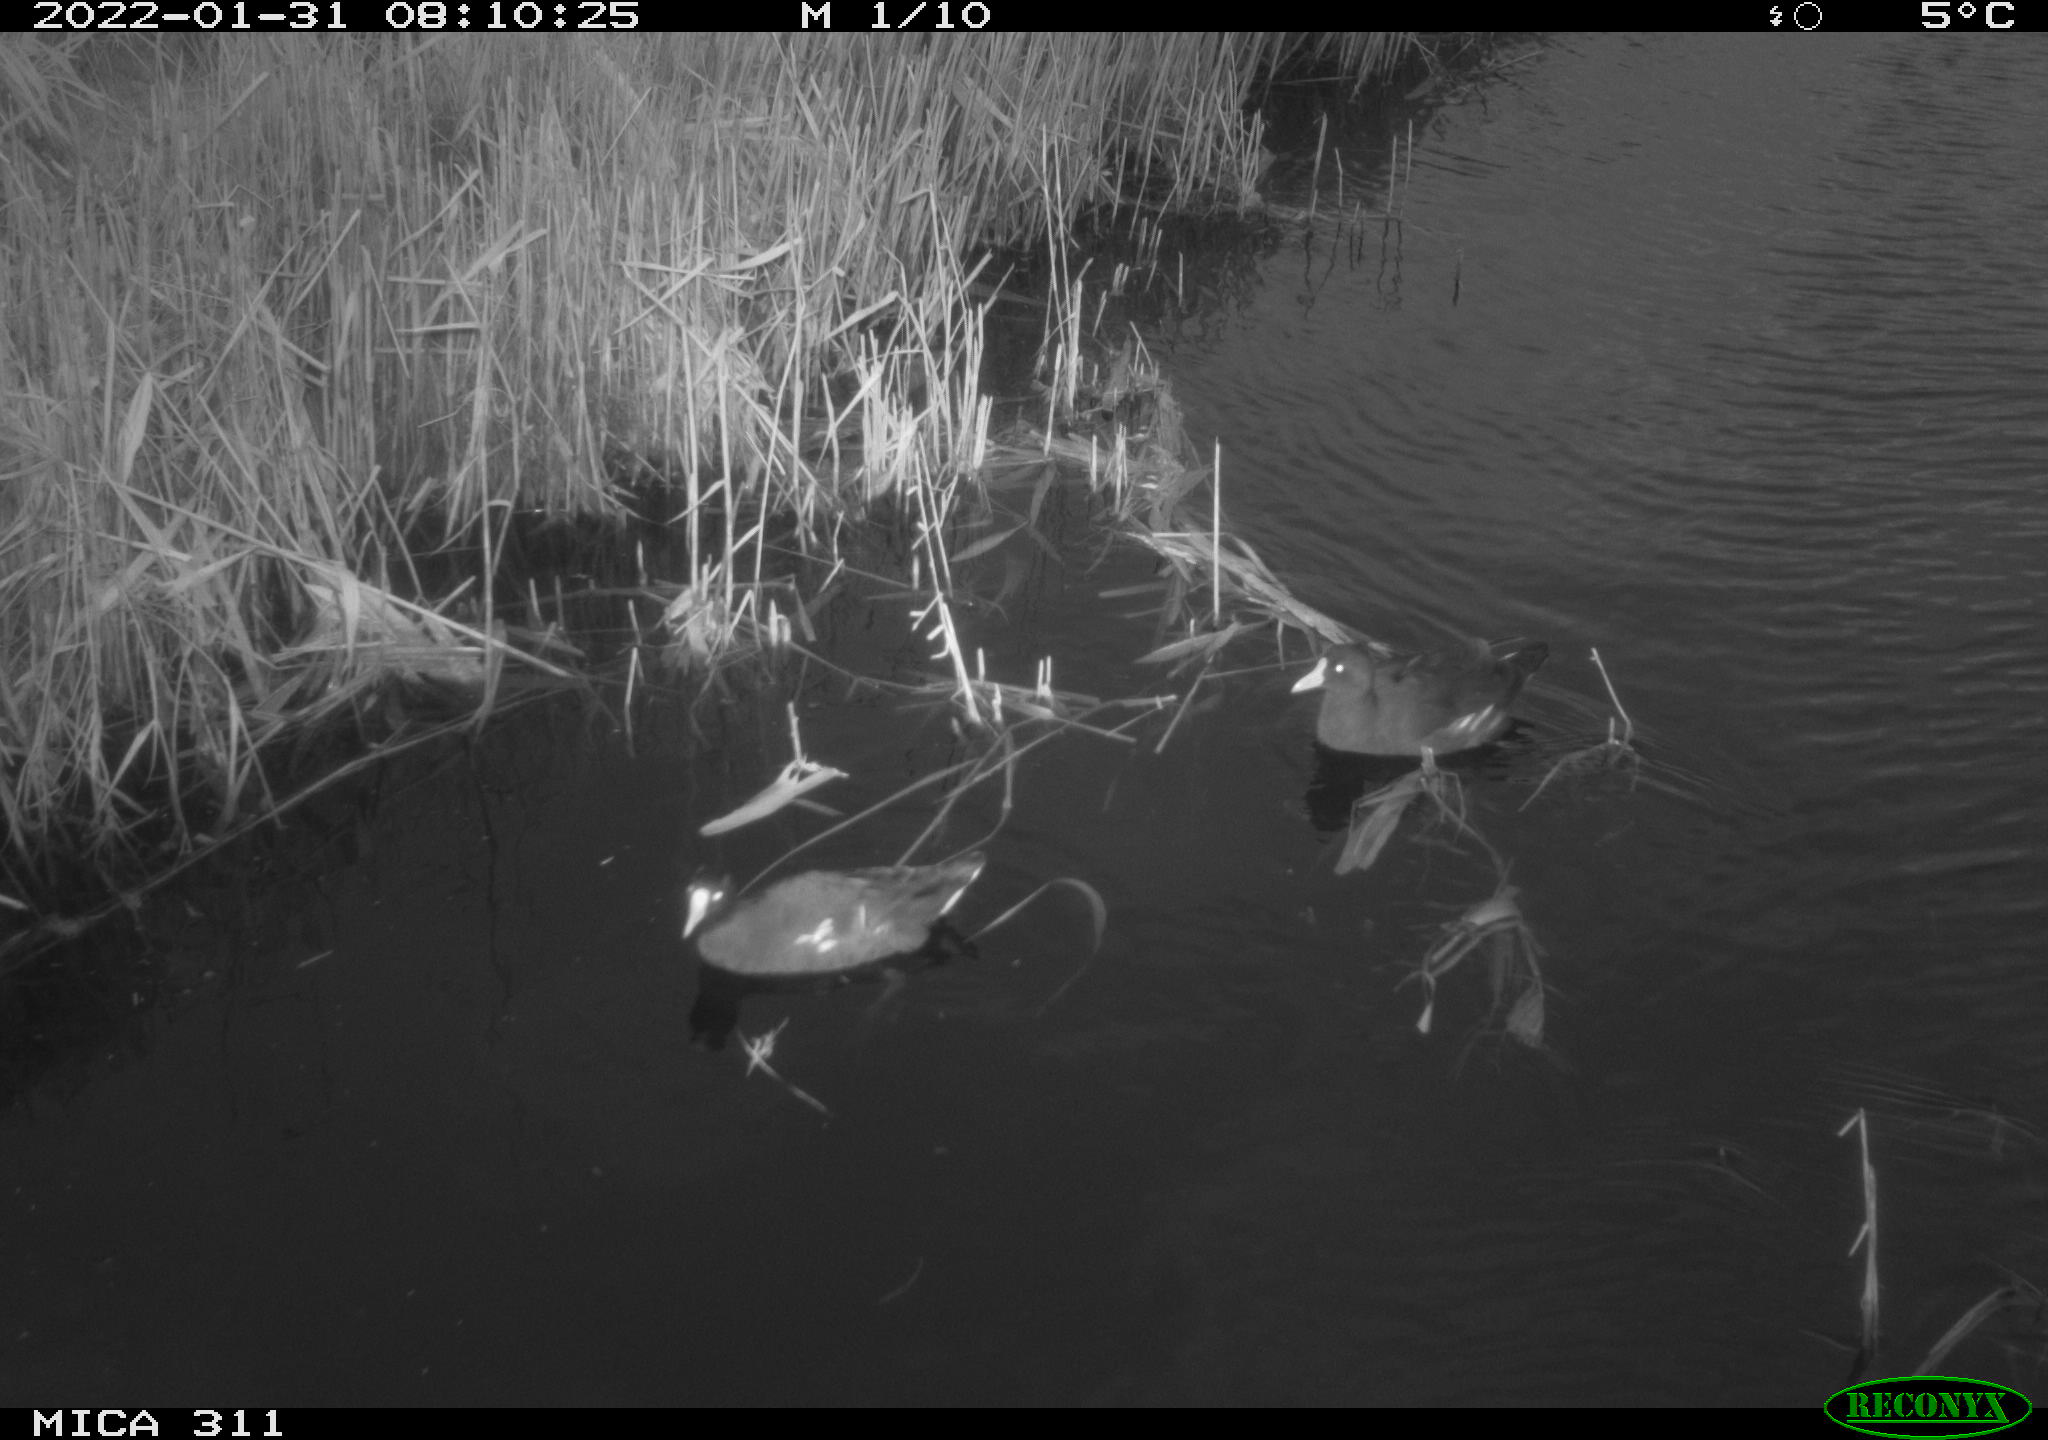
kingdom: Animalia
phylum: Chordata
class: Aves
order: Gruiformes
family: Rallidae
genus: Gallinula
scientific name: Gallinula chloropus
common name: Common moorhen
